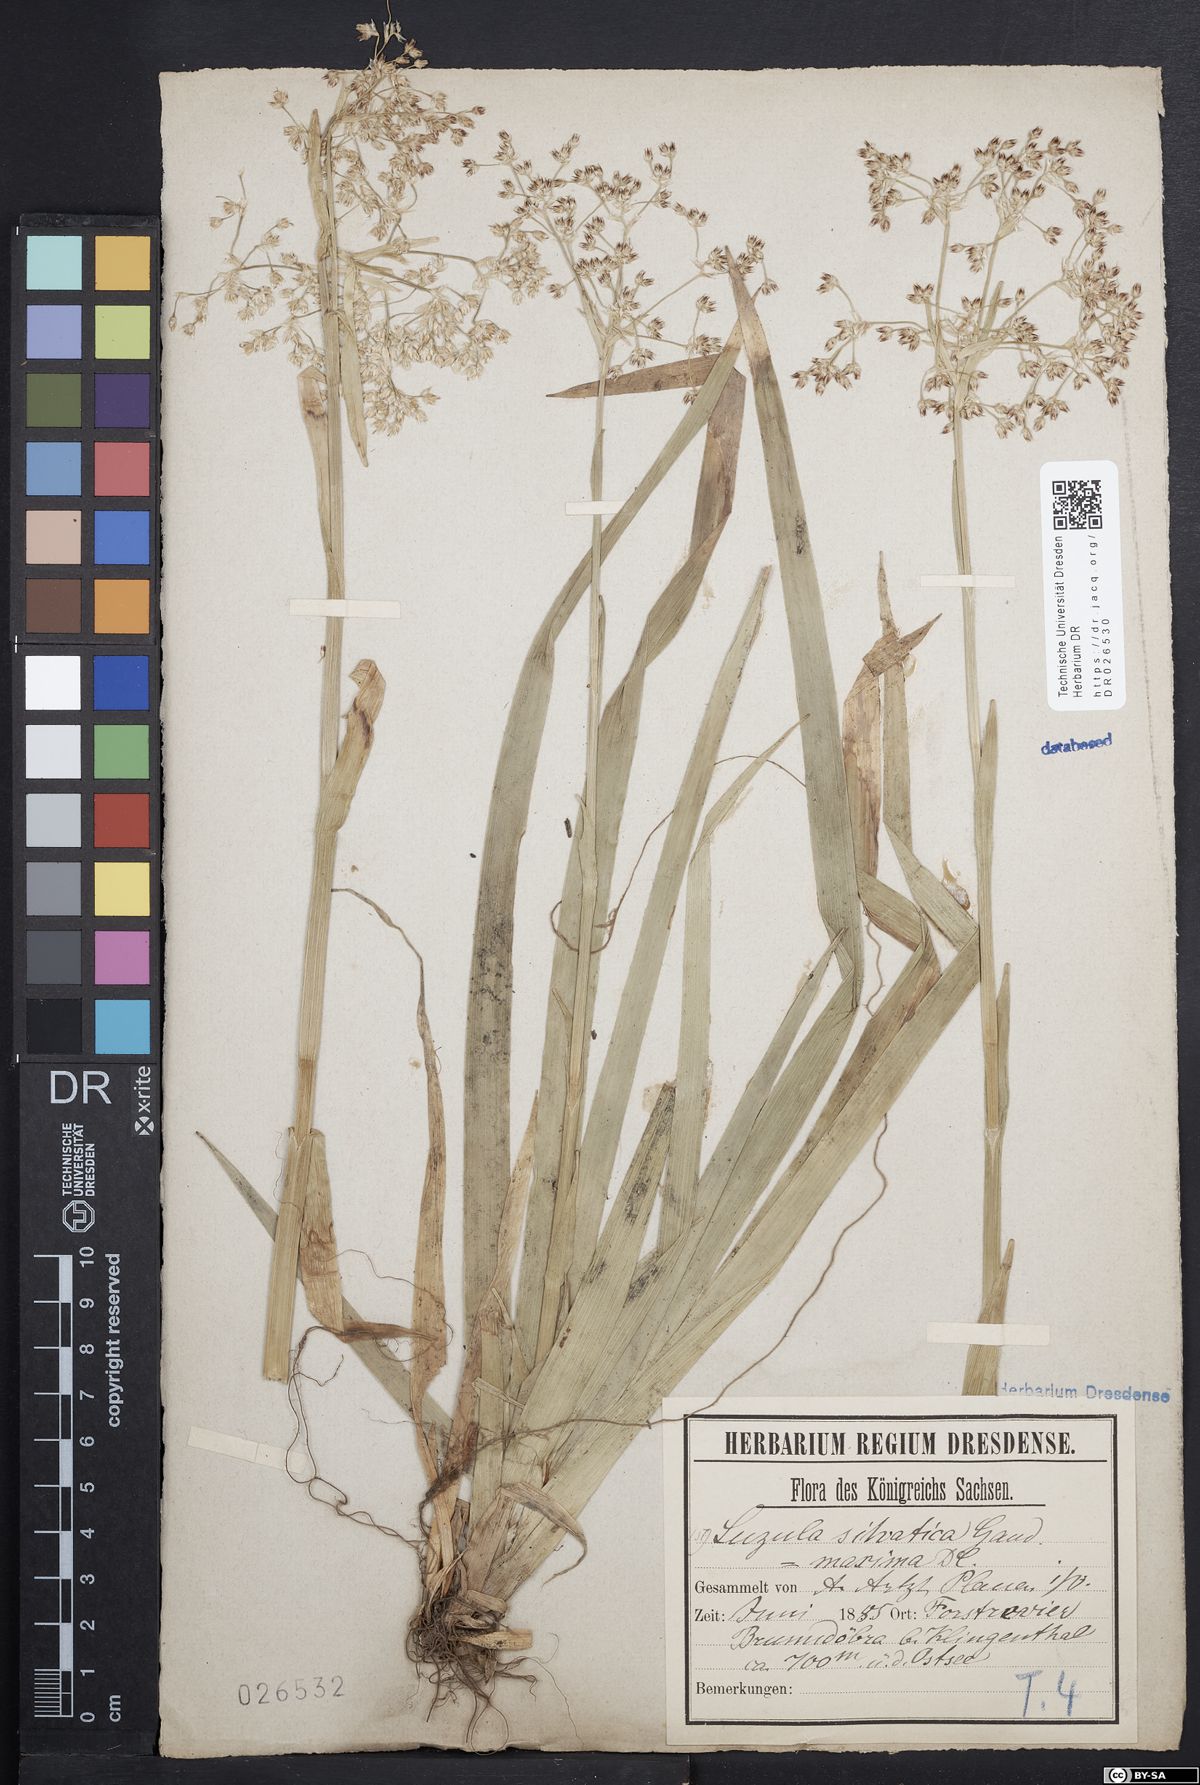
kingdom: Plantae
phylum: Tracheophyta
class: Liliopsida
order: Poales
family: Juncaceae
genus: Luzula
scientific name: Luzula sylvatica
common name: Great wood-rush
